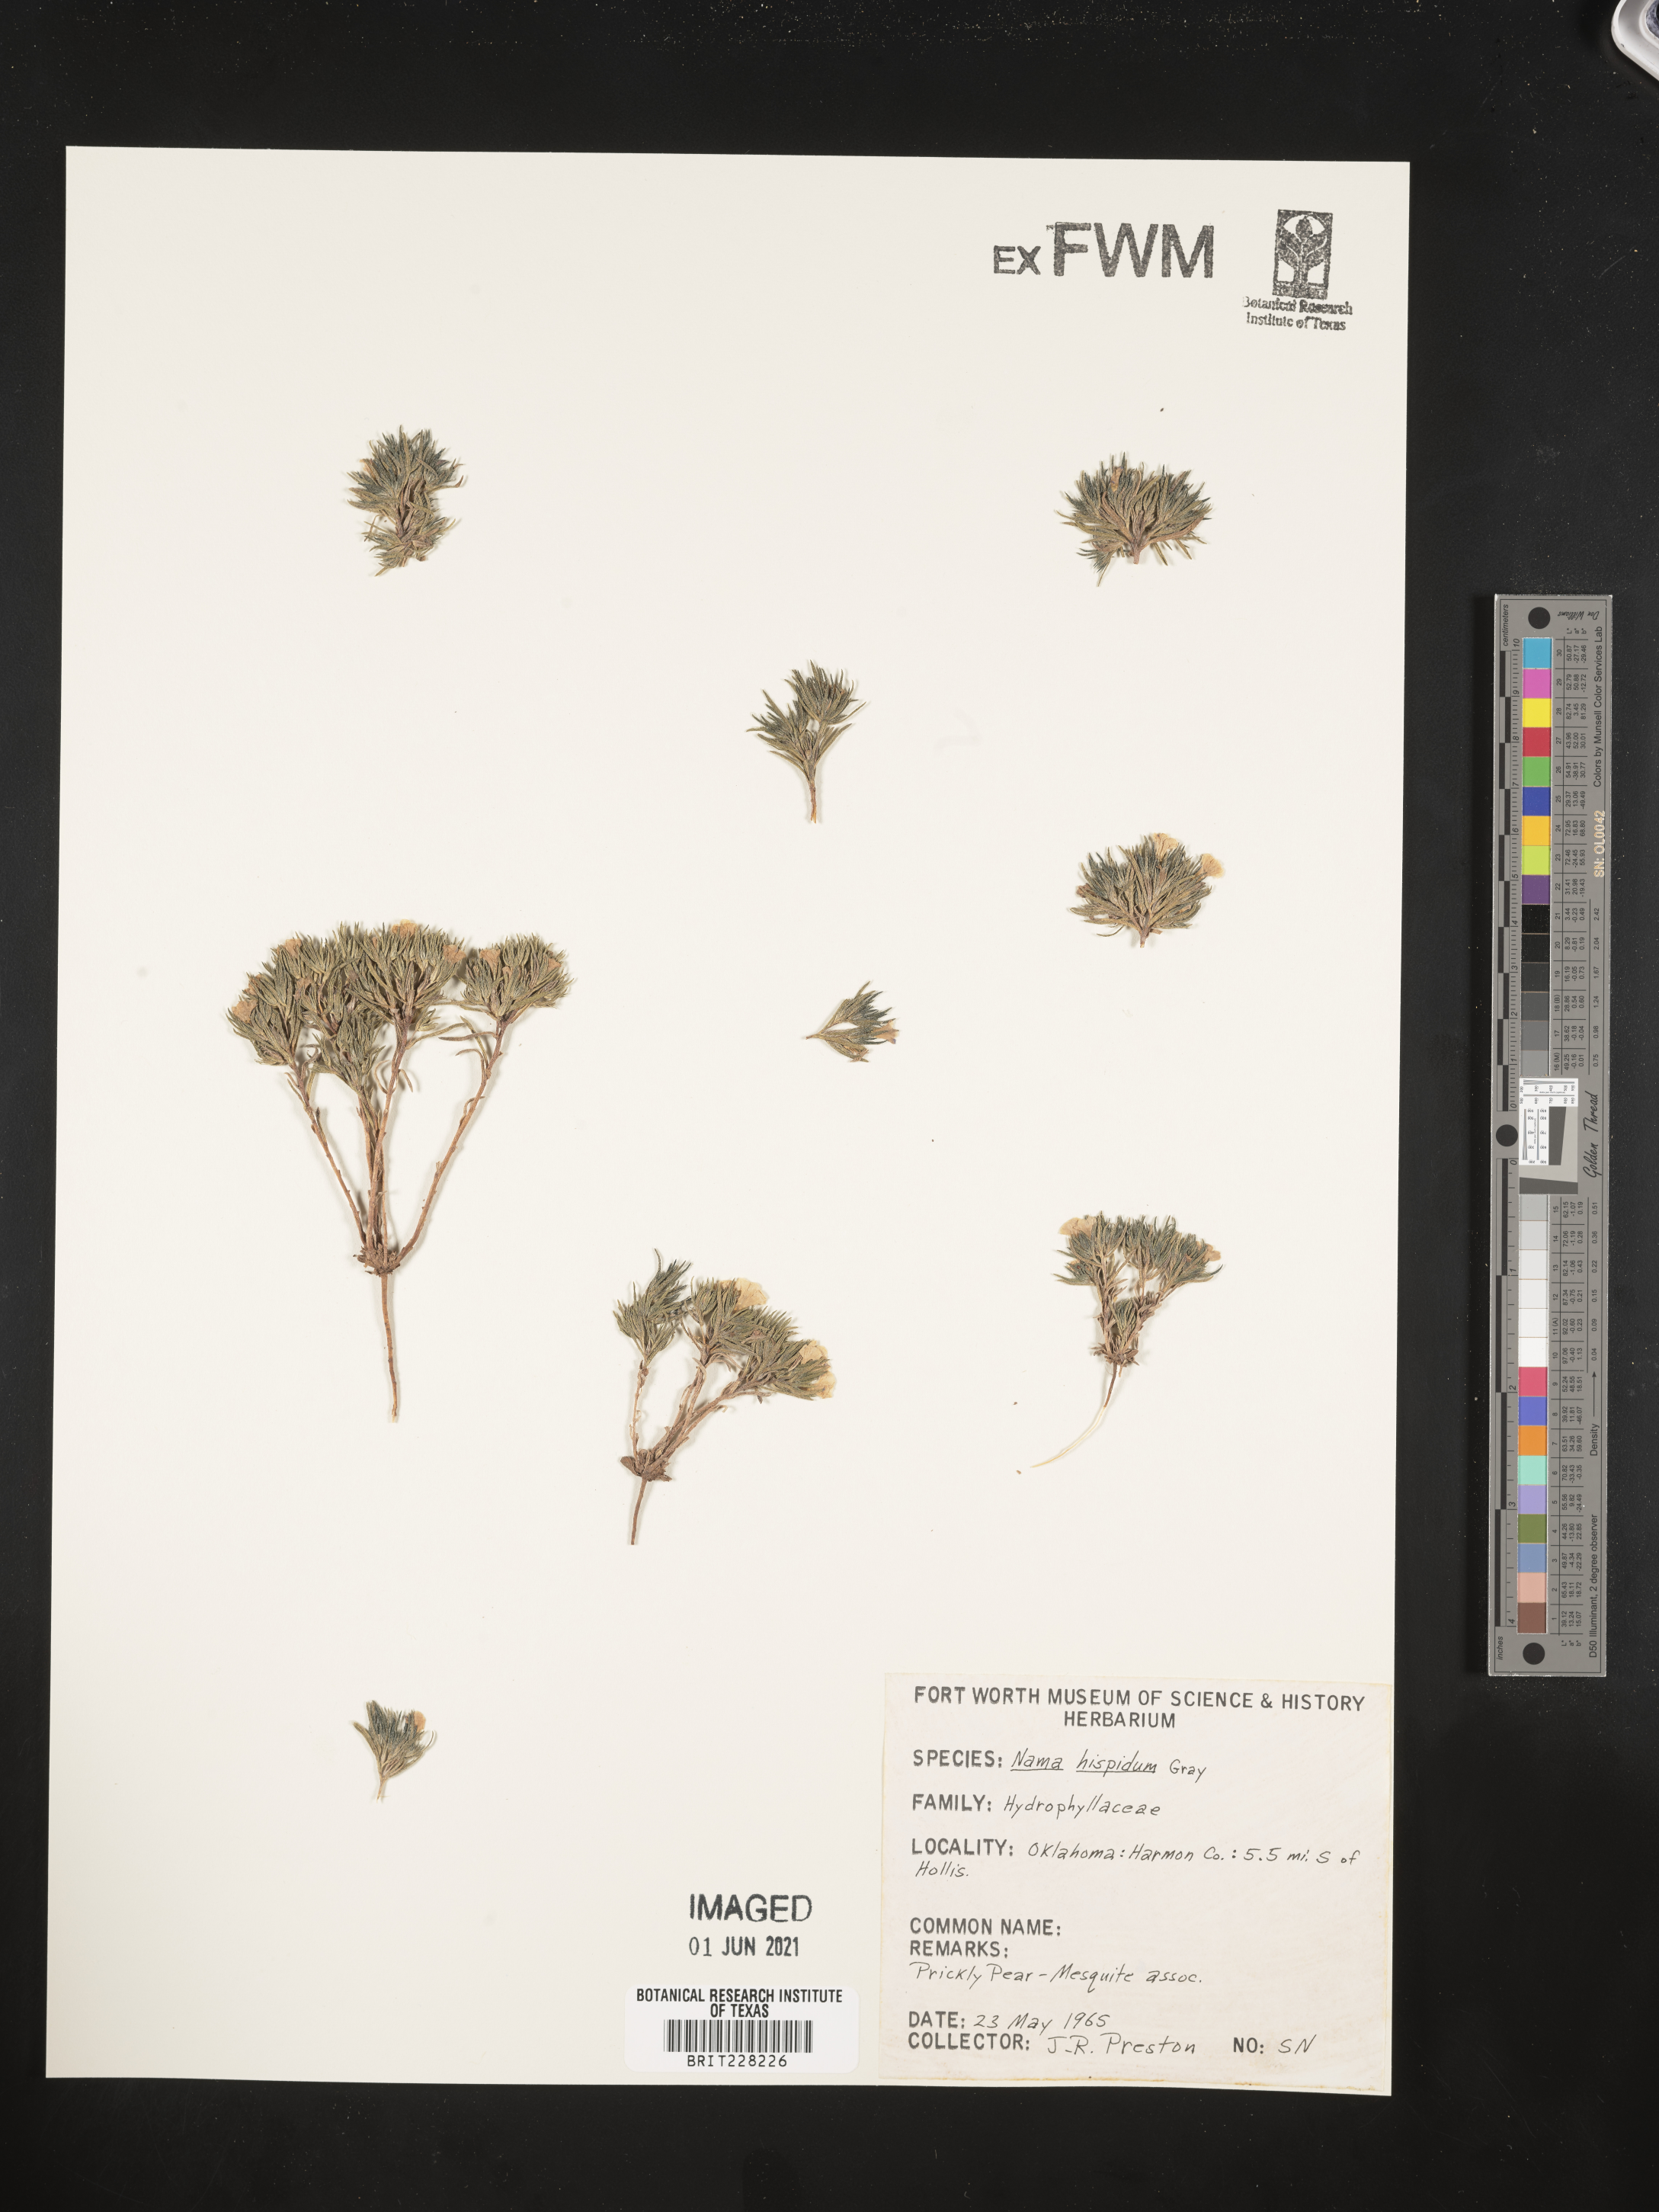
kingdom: Plantae
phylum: Tracheophyta
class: Magnoliopsida
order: Boraginales
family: Namaceae
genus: Nama
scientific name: Nama hispida
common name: Bristly nama
